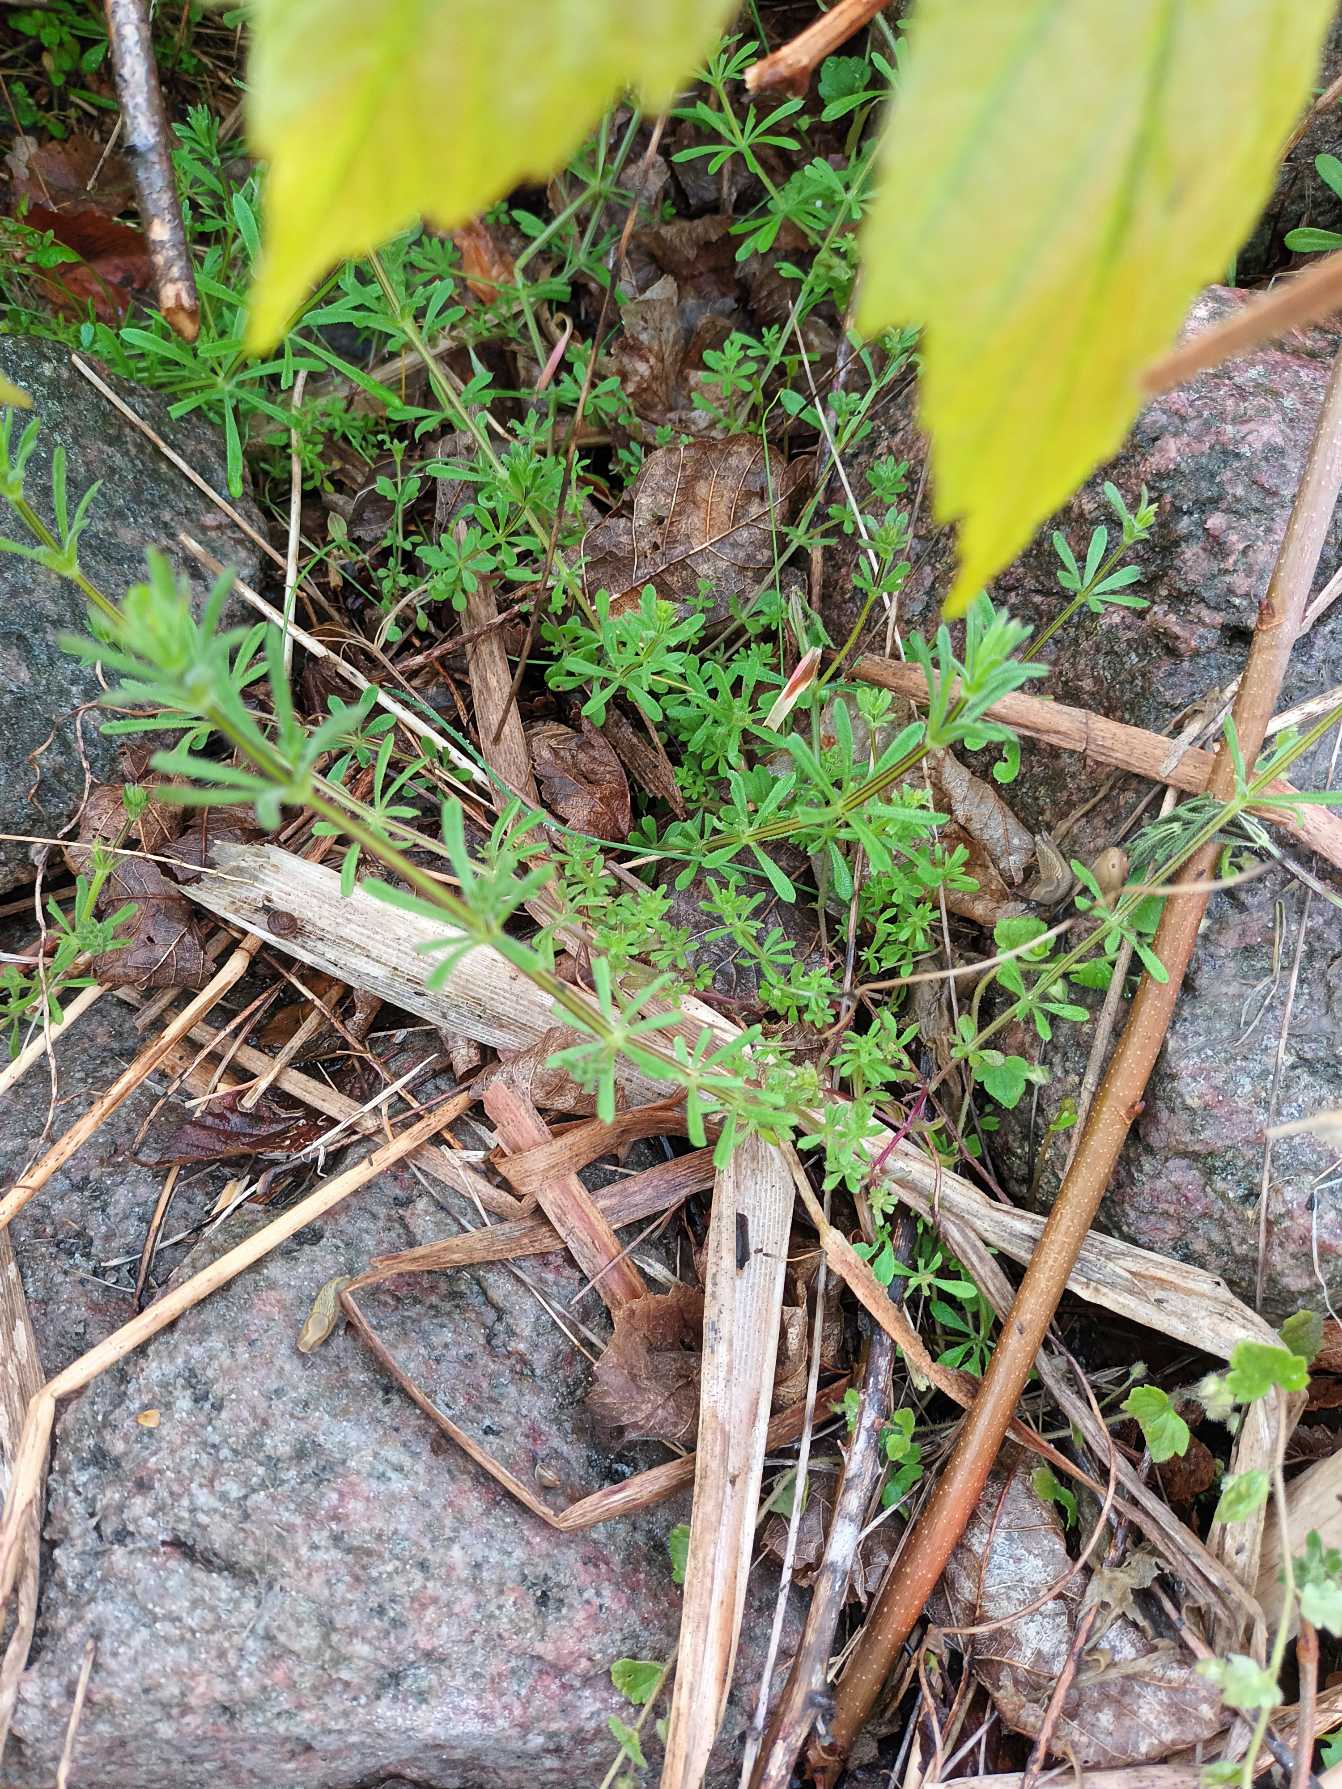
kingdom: Plantae
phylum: Tracheophyta
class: Magnoliopsida
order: Gentianales
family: Rubiaceae
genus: Galium
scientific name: Galium aparine
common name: Burre-snerre
